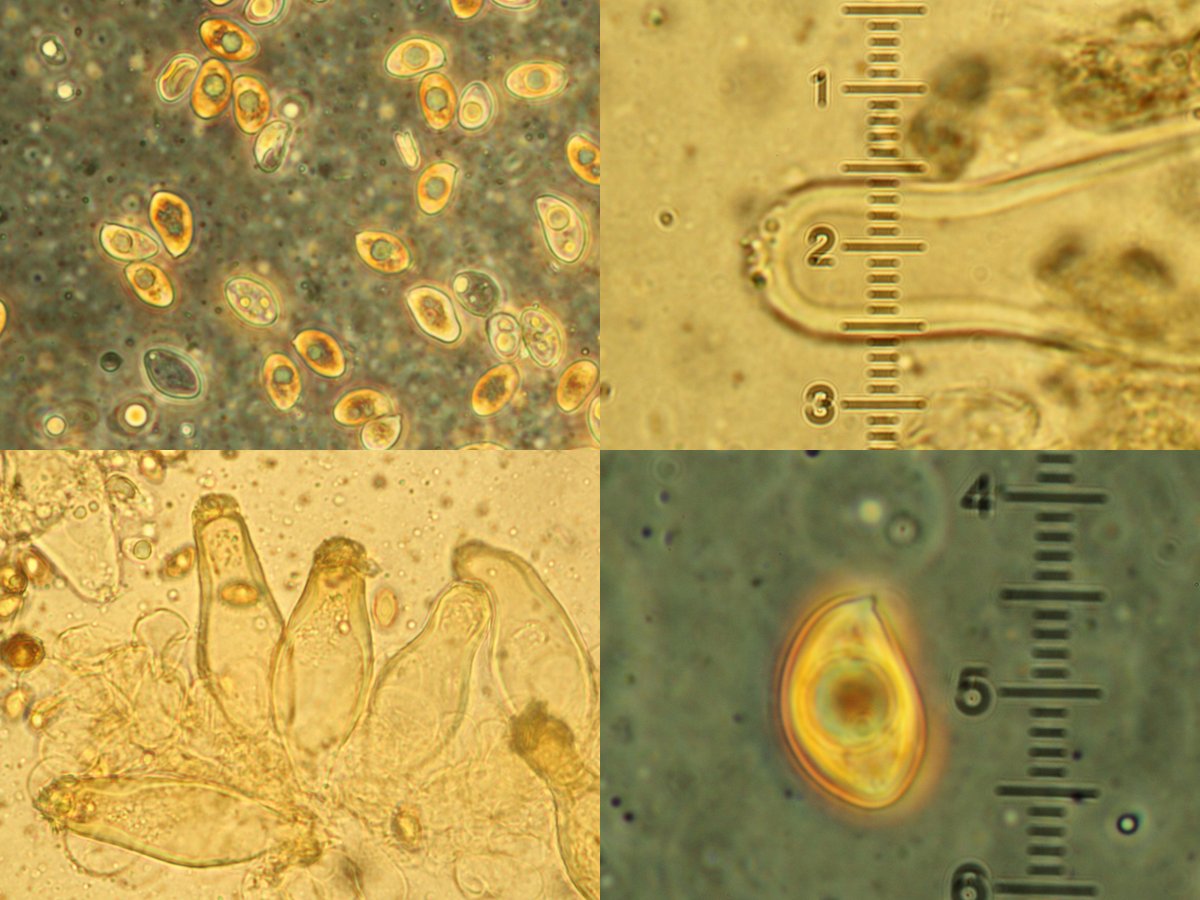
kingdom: Fungi
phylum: Basidiomycota
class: Agaricomycetes
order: Agaricales
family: Inocybaceae
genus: Inocybe
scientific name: Inocybe splendentoides
